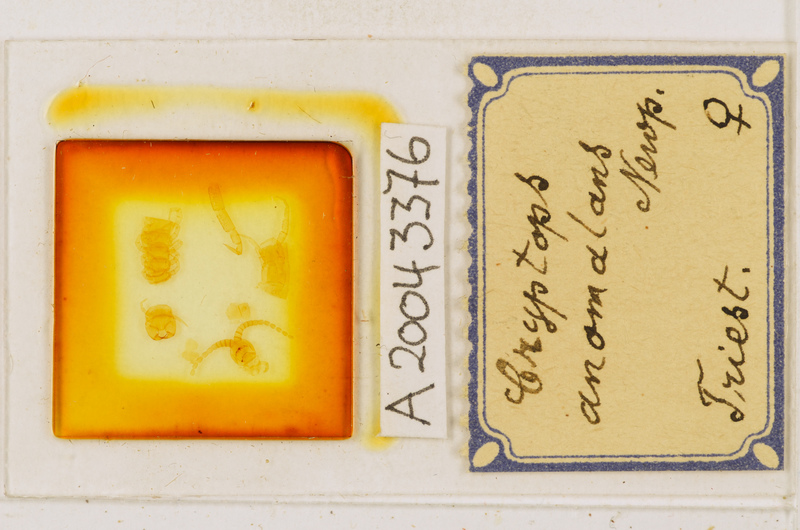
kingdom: Animalia
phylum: Arthropoda
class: Chilopoda
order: Scolopendromorpha
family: Cryptopidae
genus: Cryptops
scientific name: Cryptops anomalans
